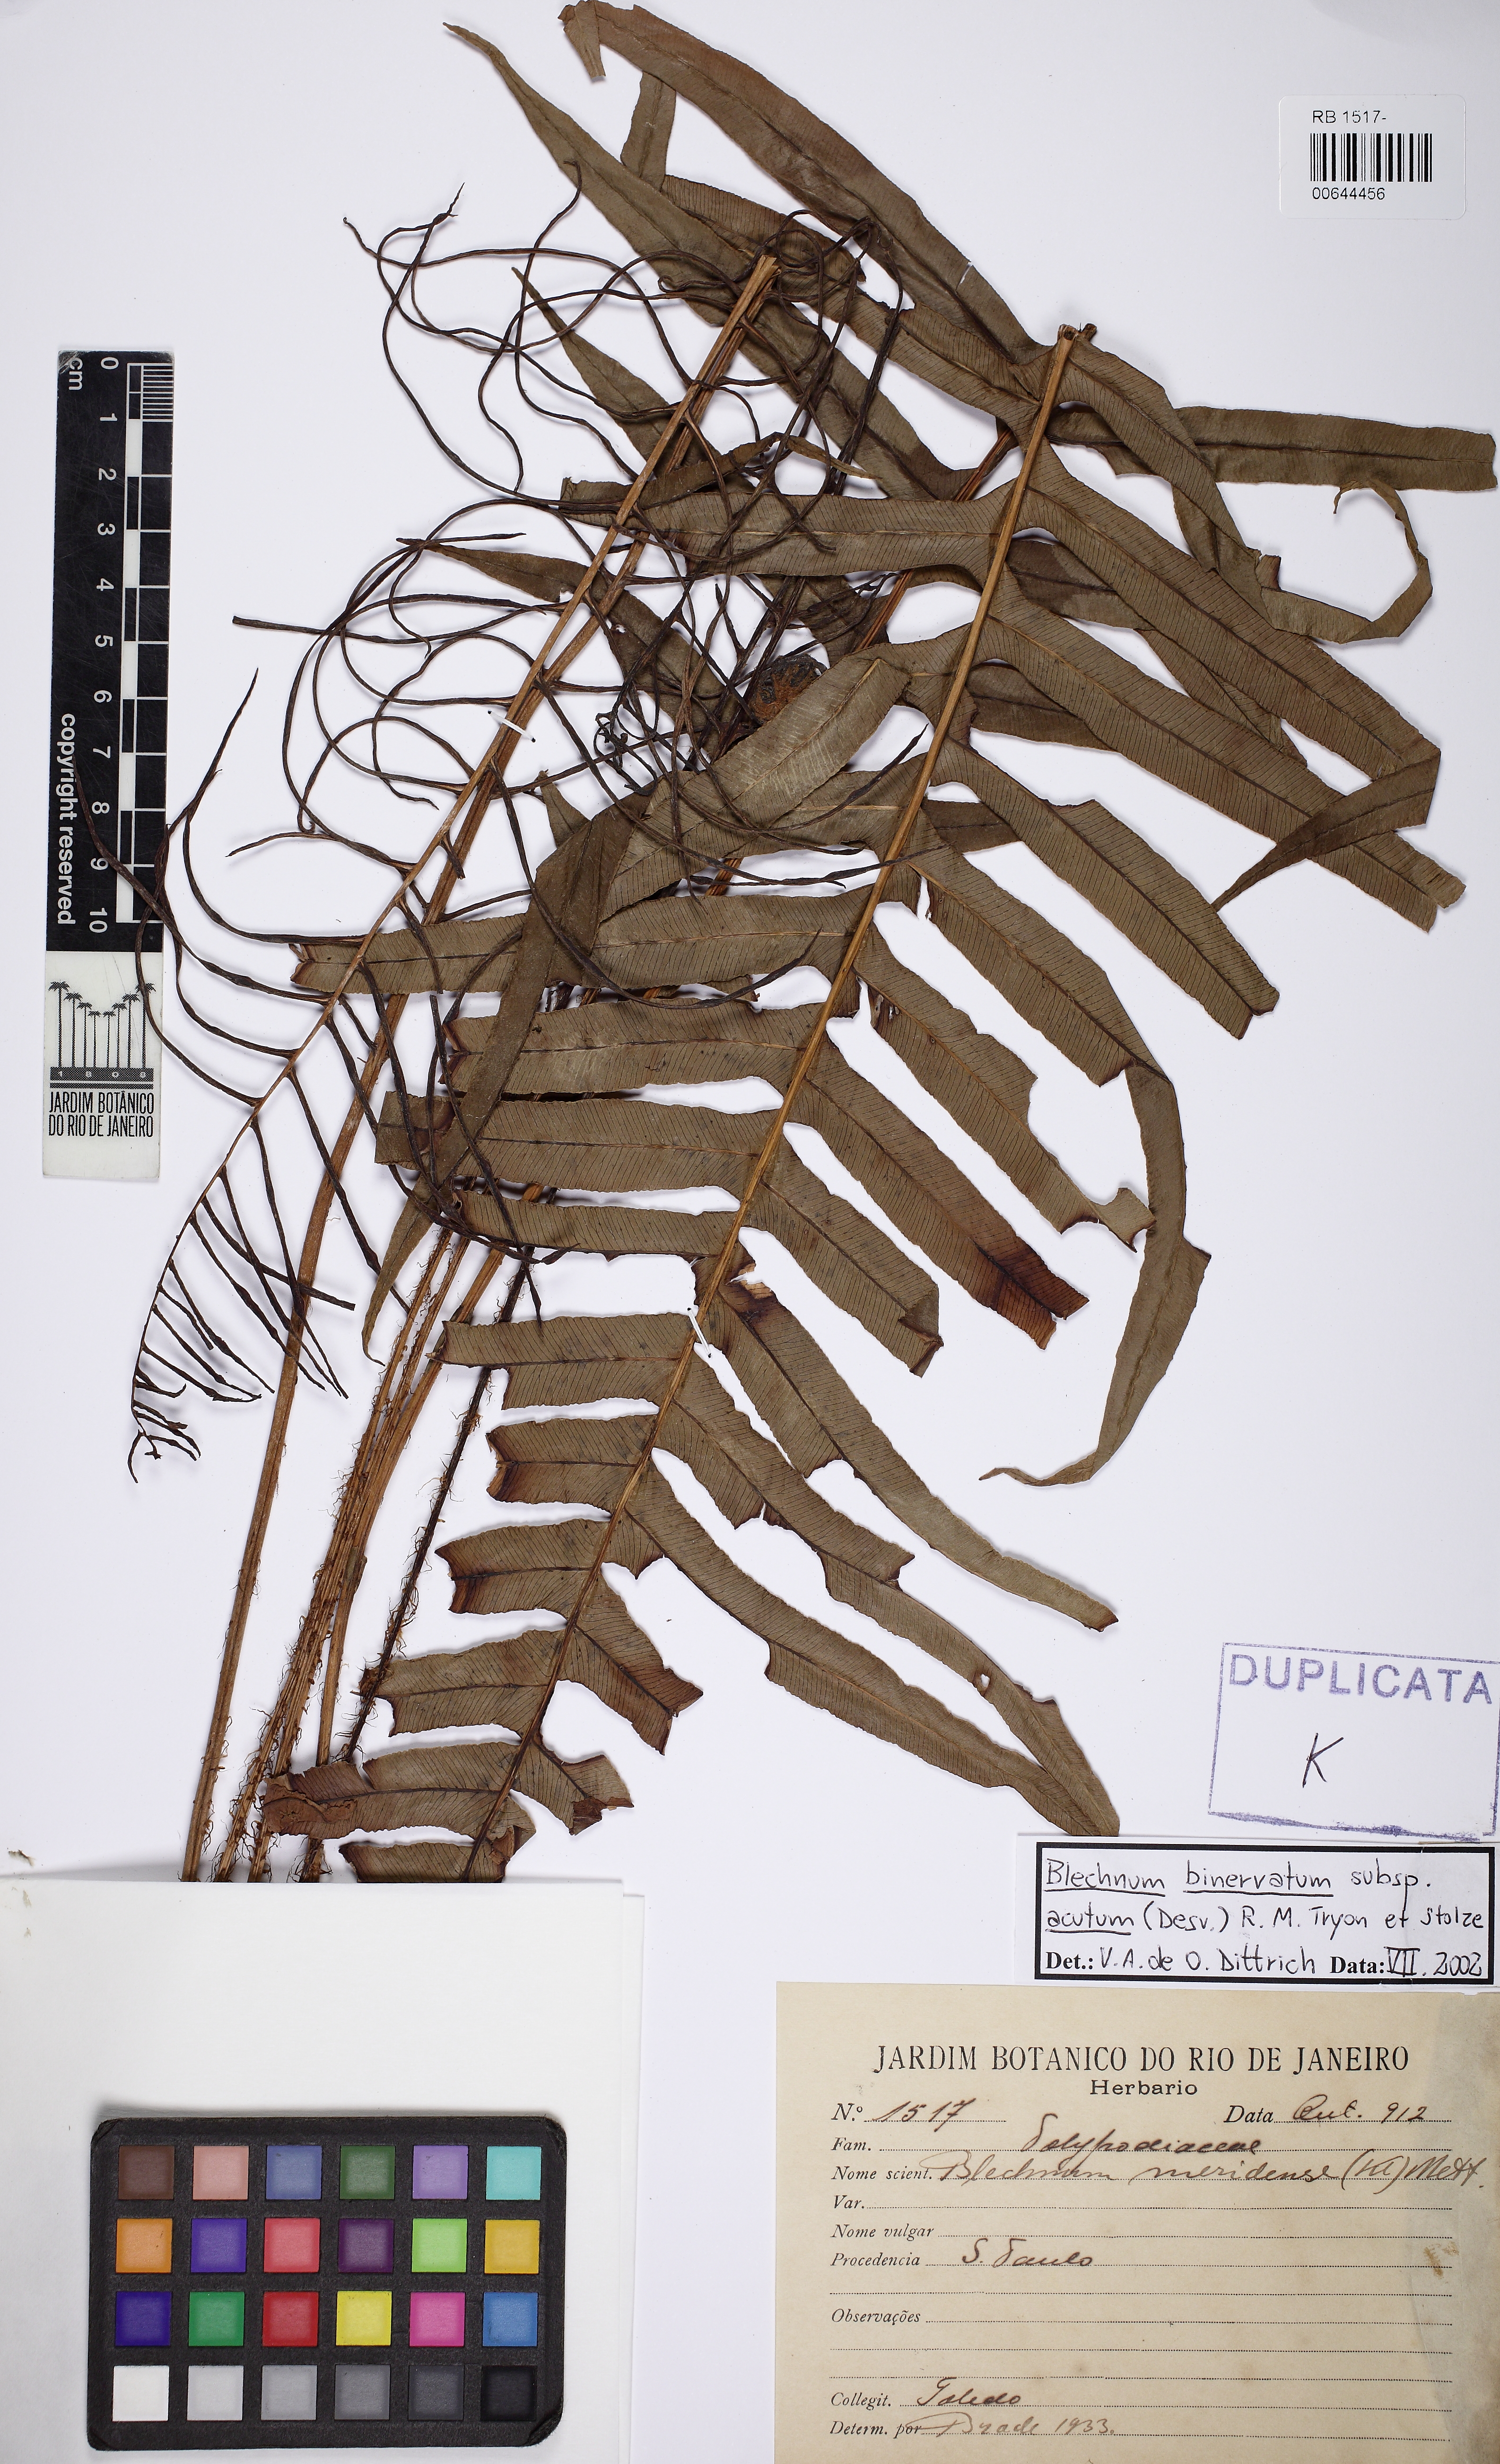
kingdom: Plantae
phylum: Tracheophyta
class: Polypodiopsida
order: Polypodiales
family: Blechnaceae
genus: Lomaridium
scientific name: Lomaridium binervatum
